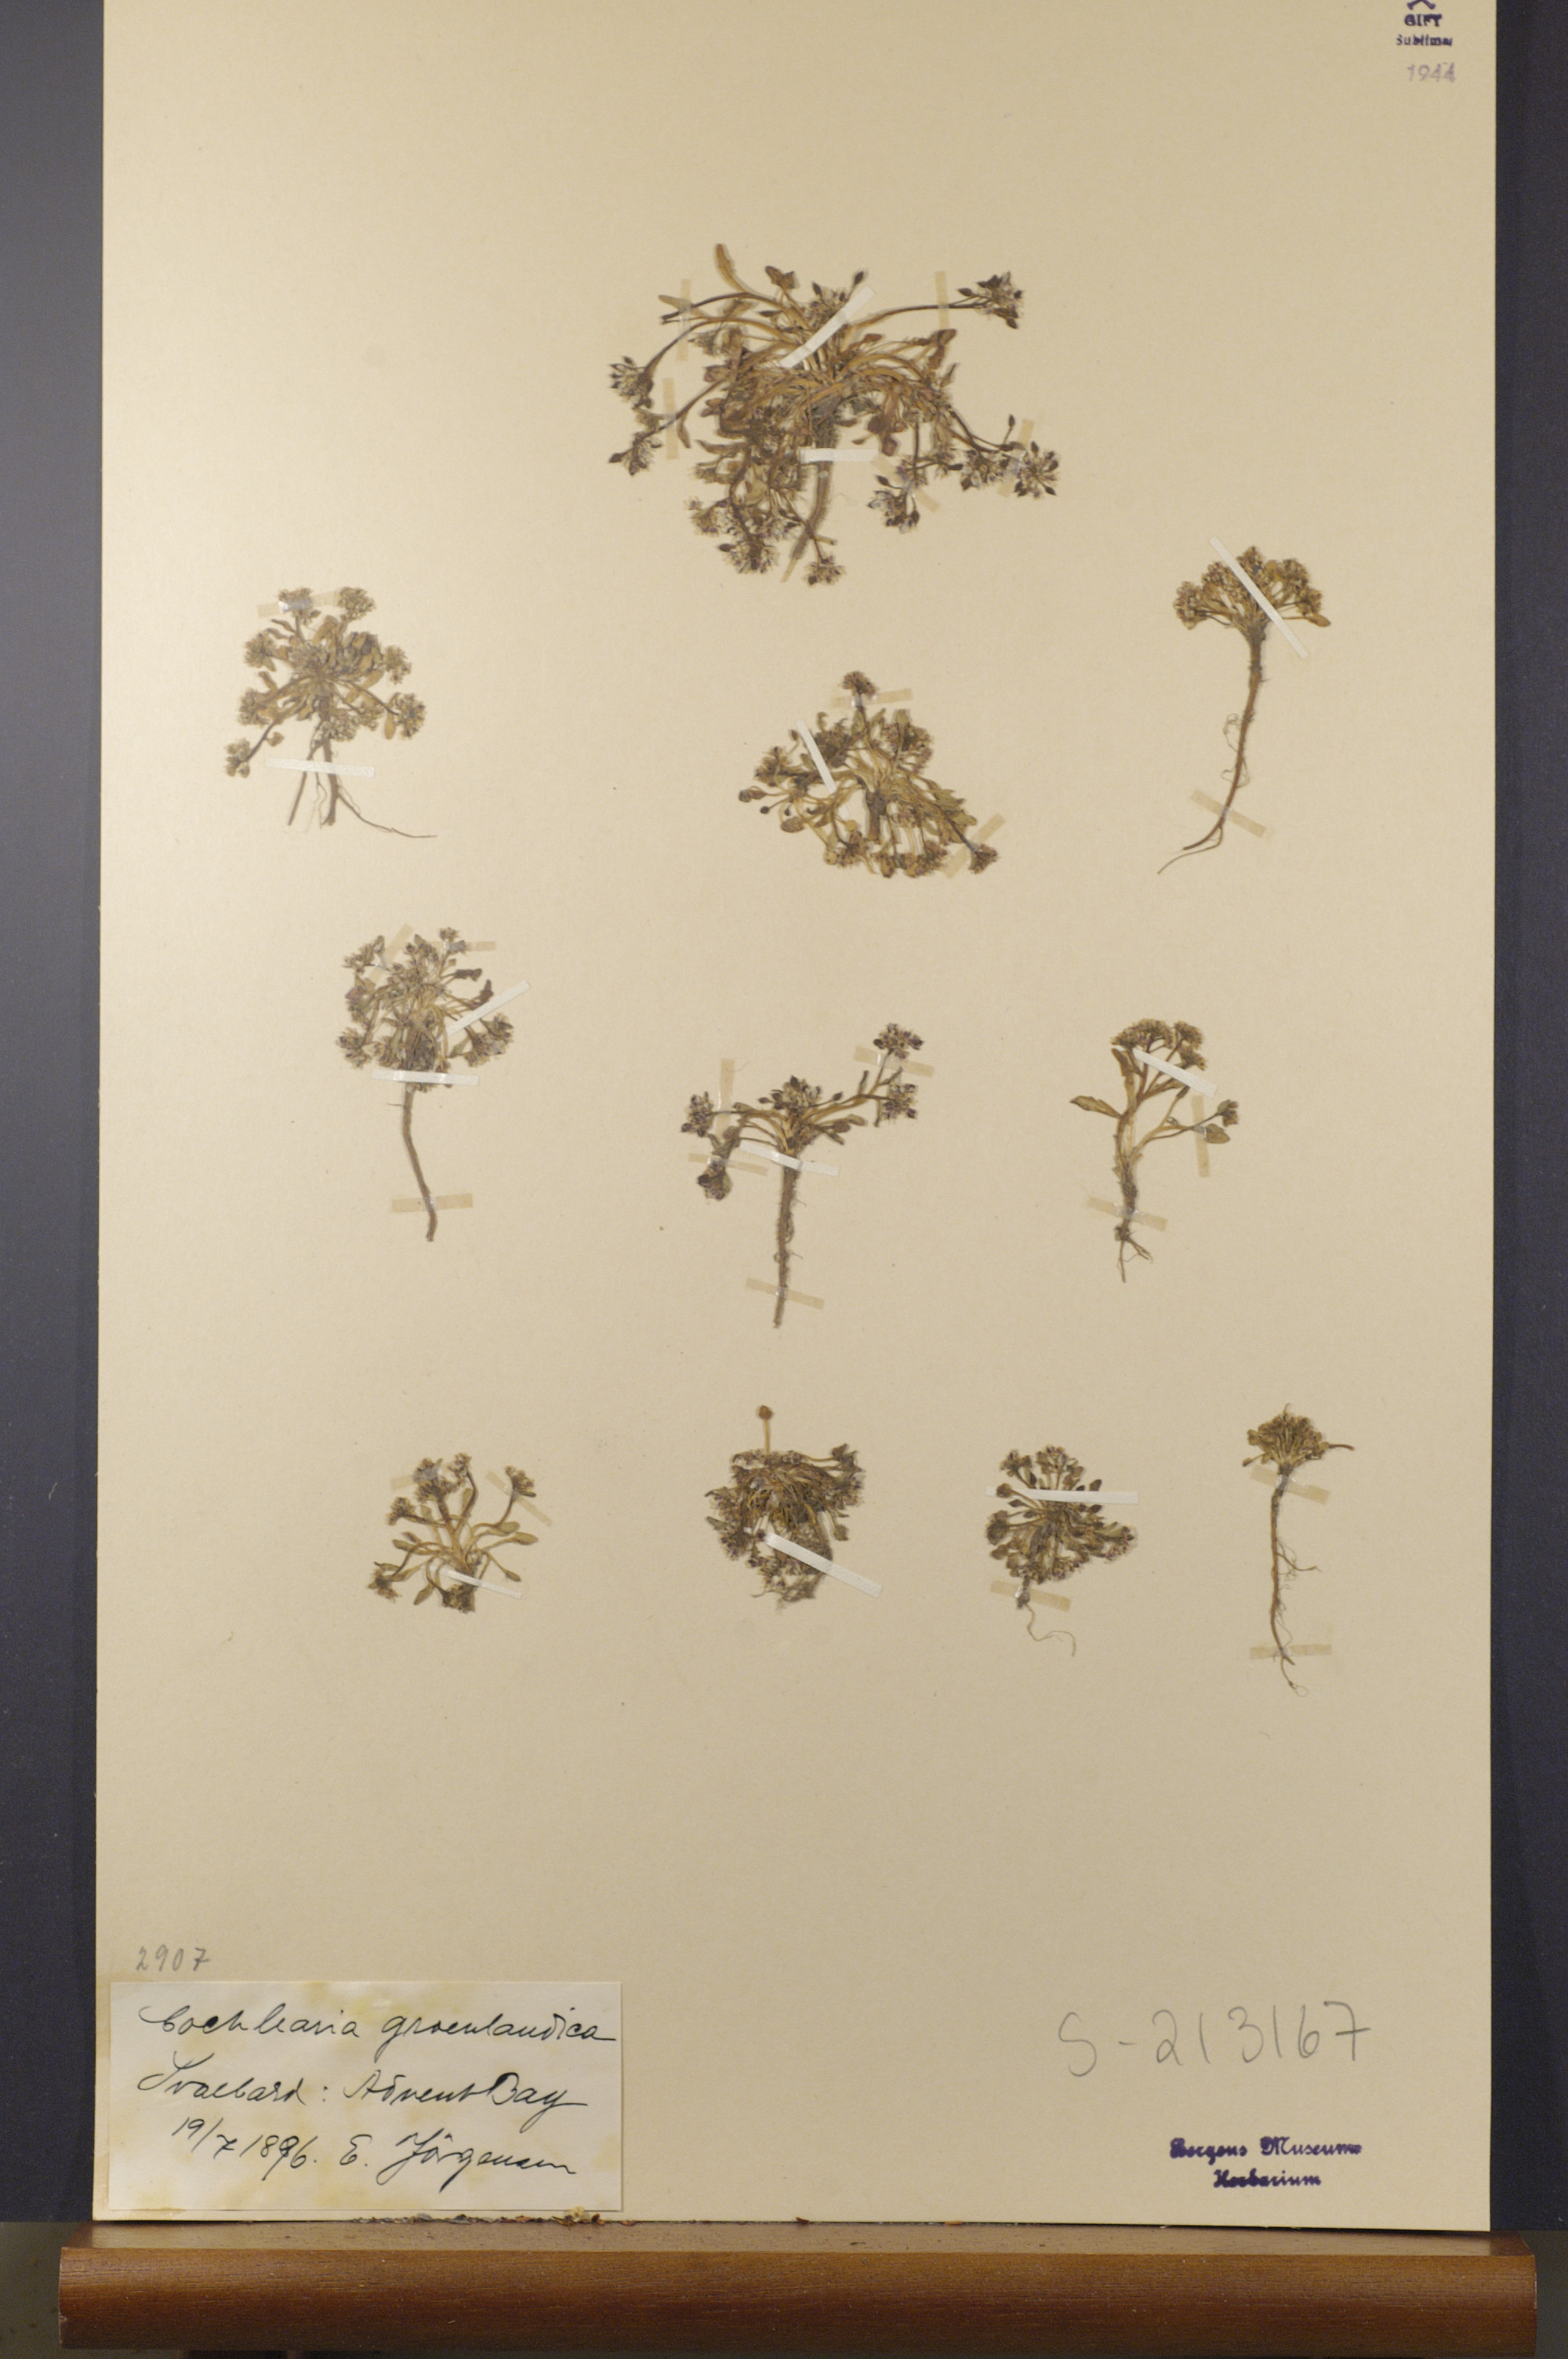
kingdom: Plantae
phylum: Tracheophyta
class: Magnoliopsida
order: Brassicales
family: Brassicaceae
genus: Cochlearia
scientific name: Cochlearia groenlandica
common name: Danish scurvygrass
